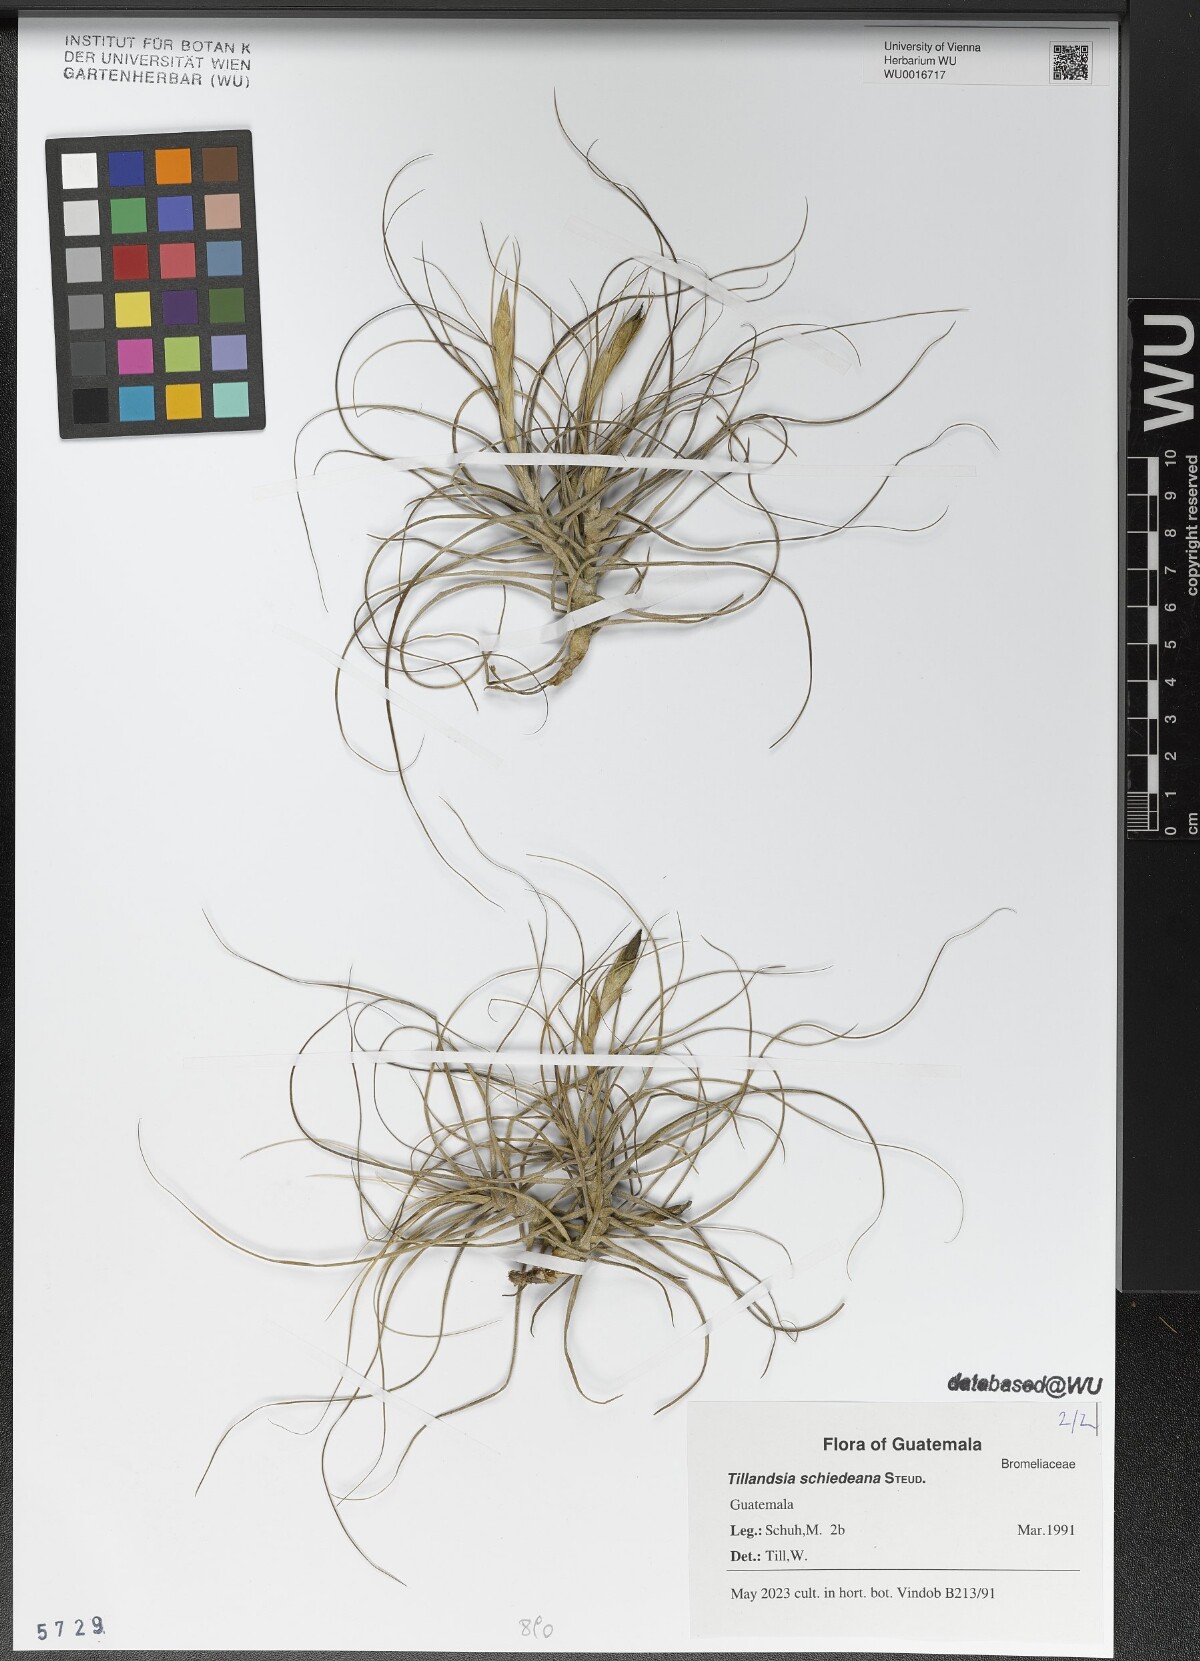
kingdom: Plantae
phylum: Tracheophyta
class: Liliopsida
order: Poales
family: Bromeliaceae
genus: Tillandsia
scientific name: Tillandsia schiedeana
